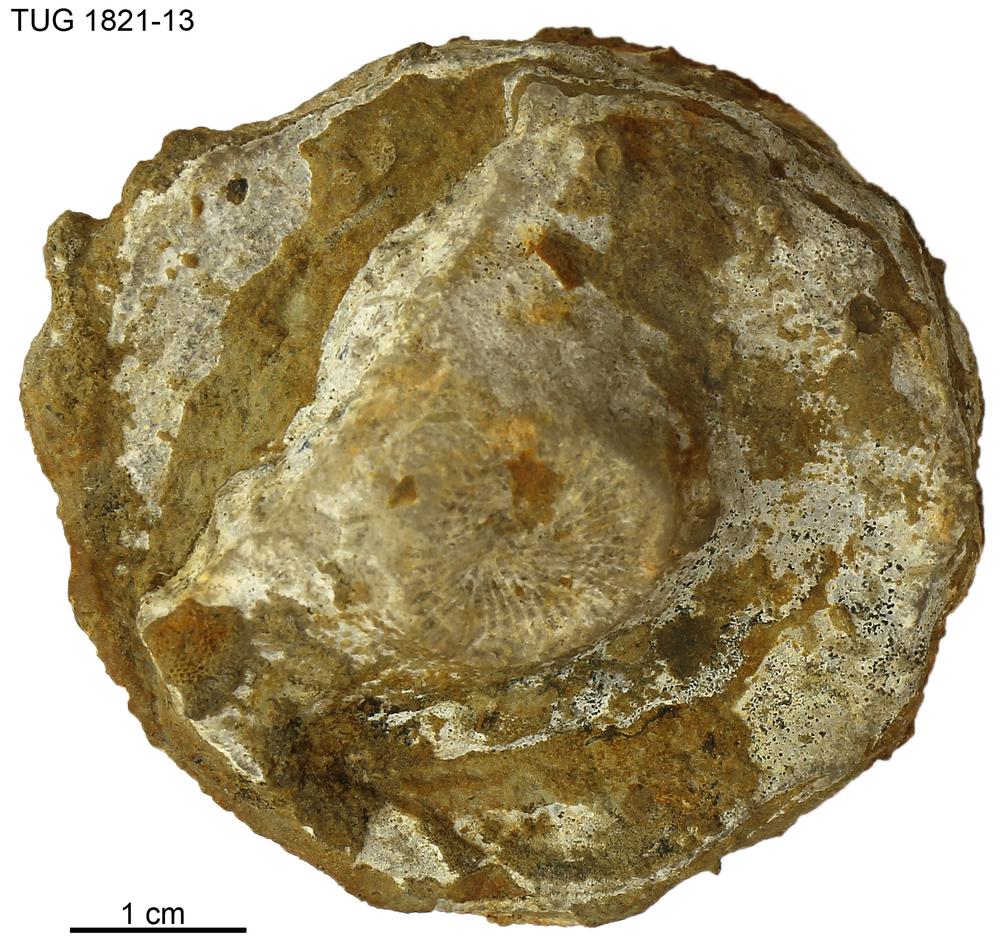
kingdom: Animalia
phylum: Cnidaria
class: Anthozoa
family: Kodonophyllidae
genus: Schlotheimophyllum
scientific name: Schlotheimophyllum
